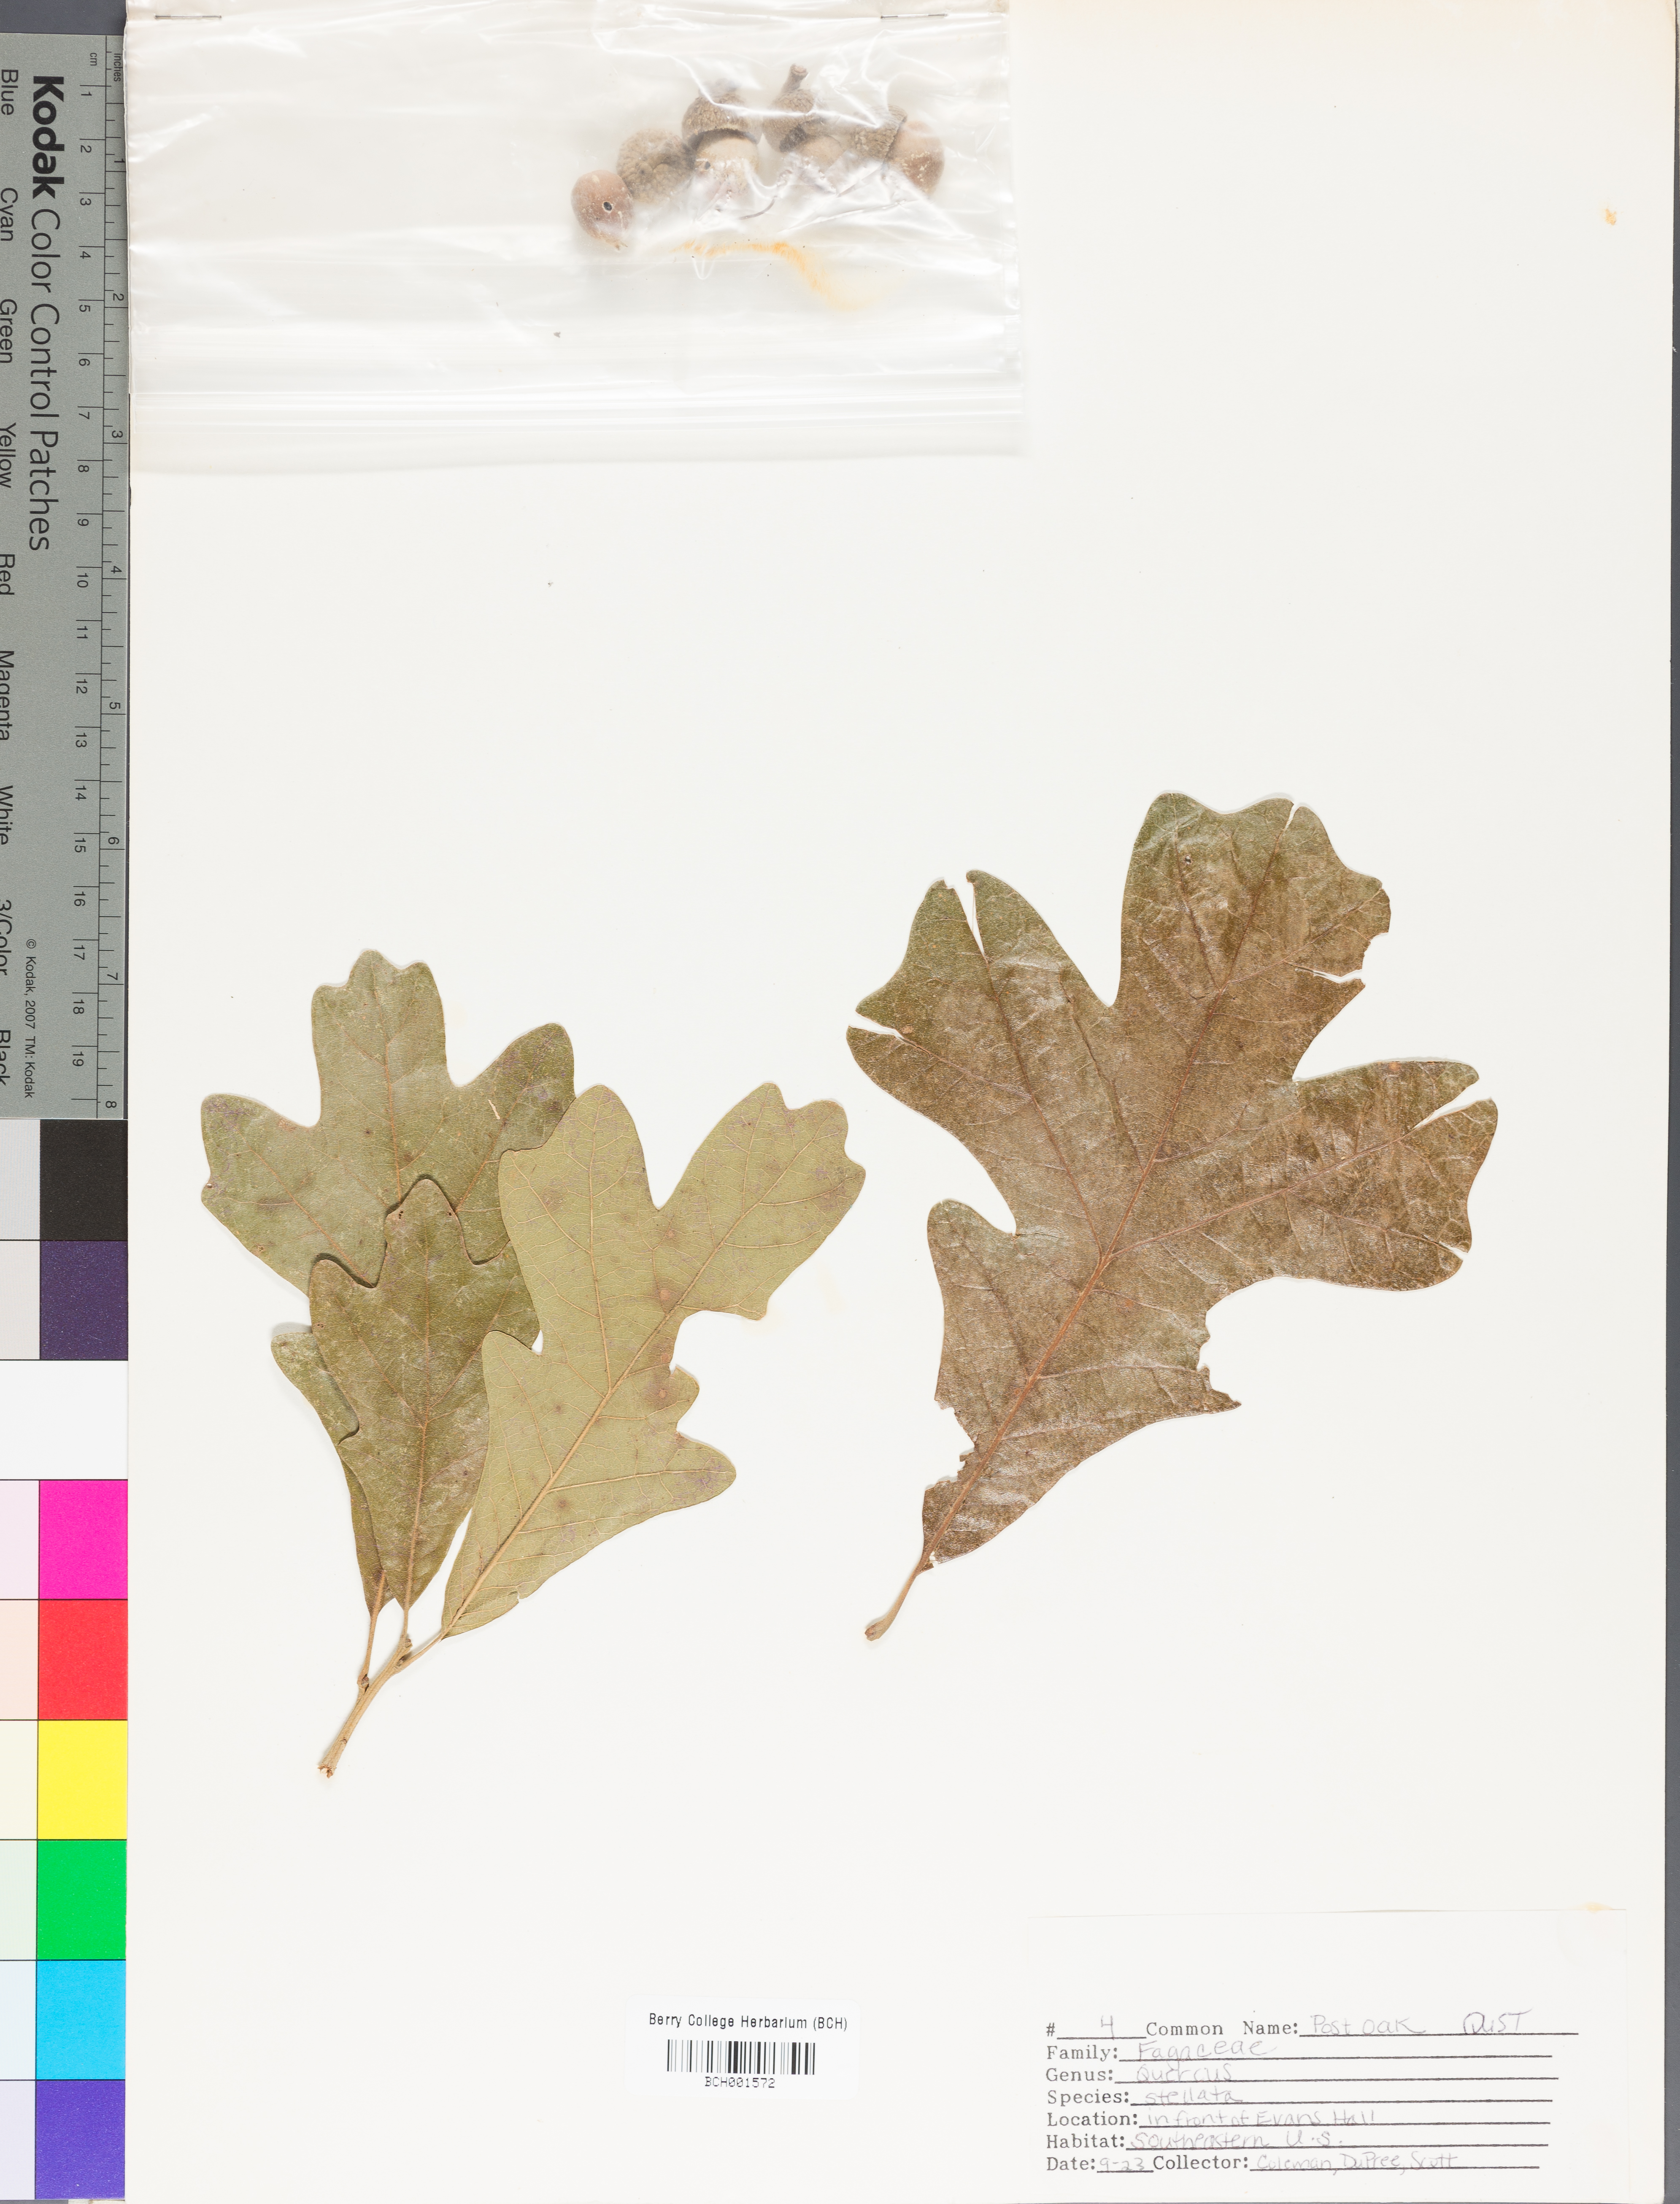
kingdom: Plantae
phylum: Tracheophyta
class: Magnoliopsida
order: Fagales
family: Fagaceae
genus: Quercus
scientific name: Quercus stellata
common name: Post oak
